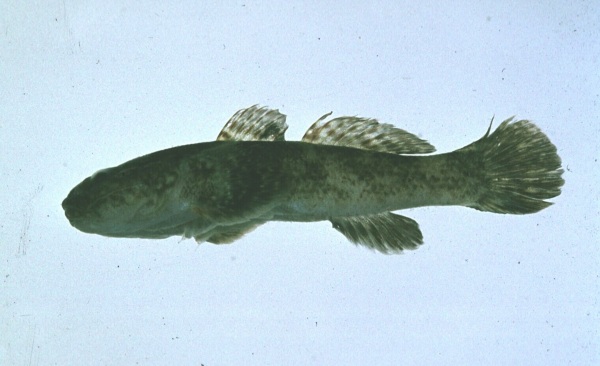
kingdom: Animalia
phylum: Chordata
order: Perciformes
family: Gobiidae
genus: Bathygobius
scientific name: Bathygobius cotticeps
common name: Cheekscaled frillgoby
